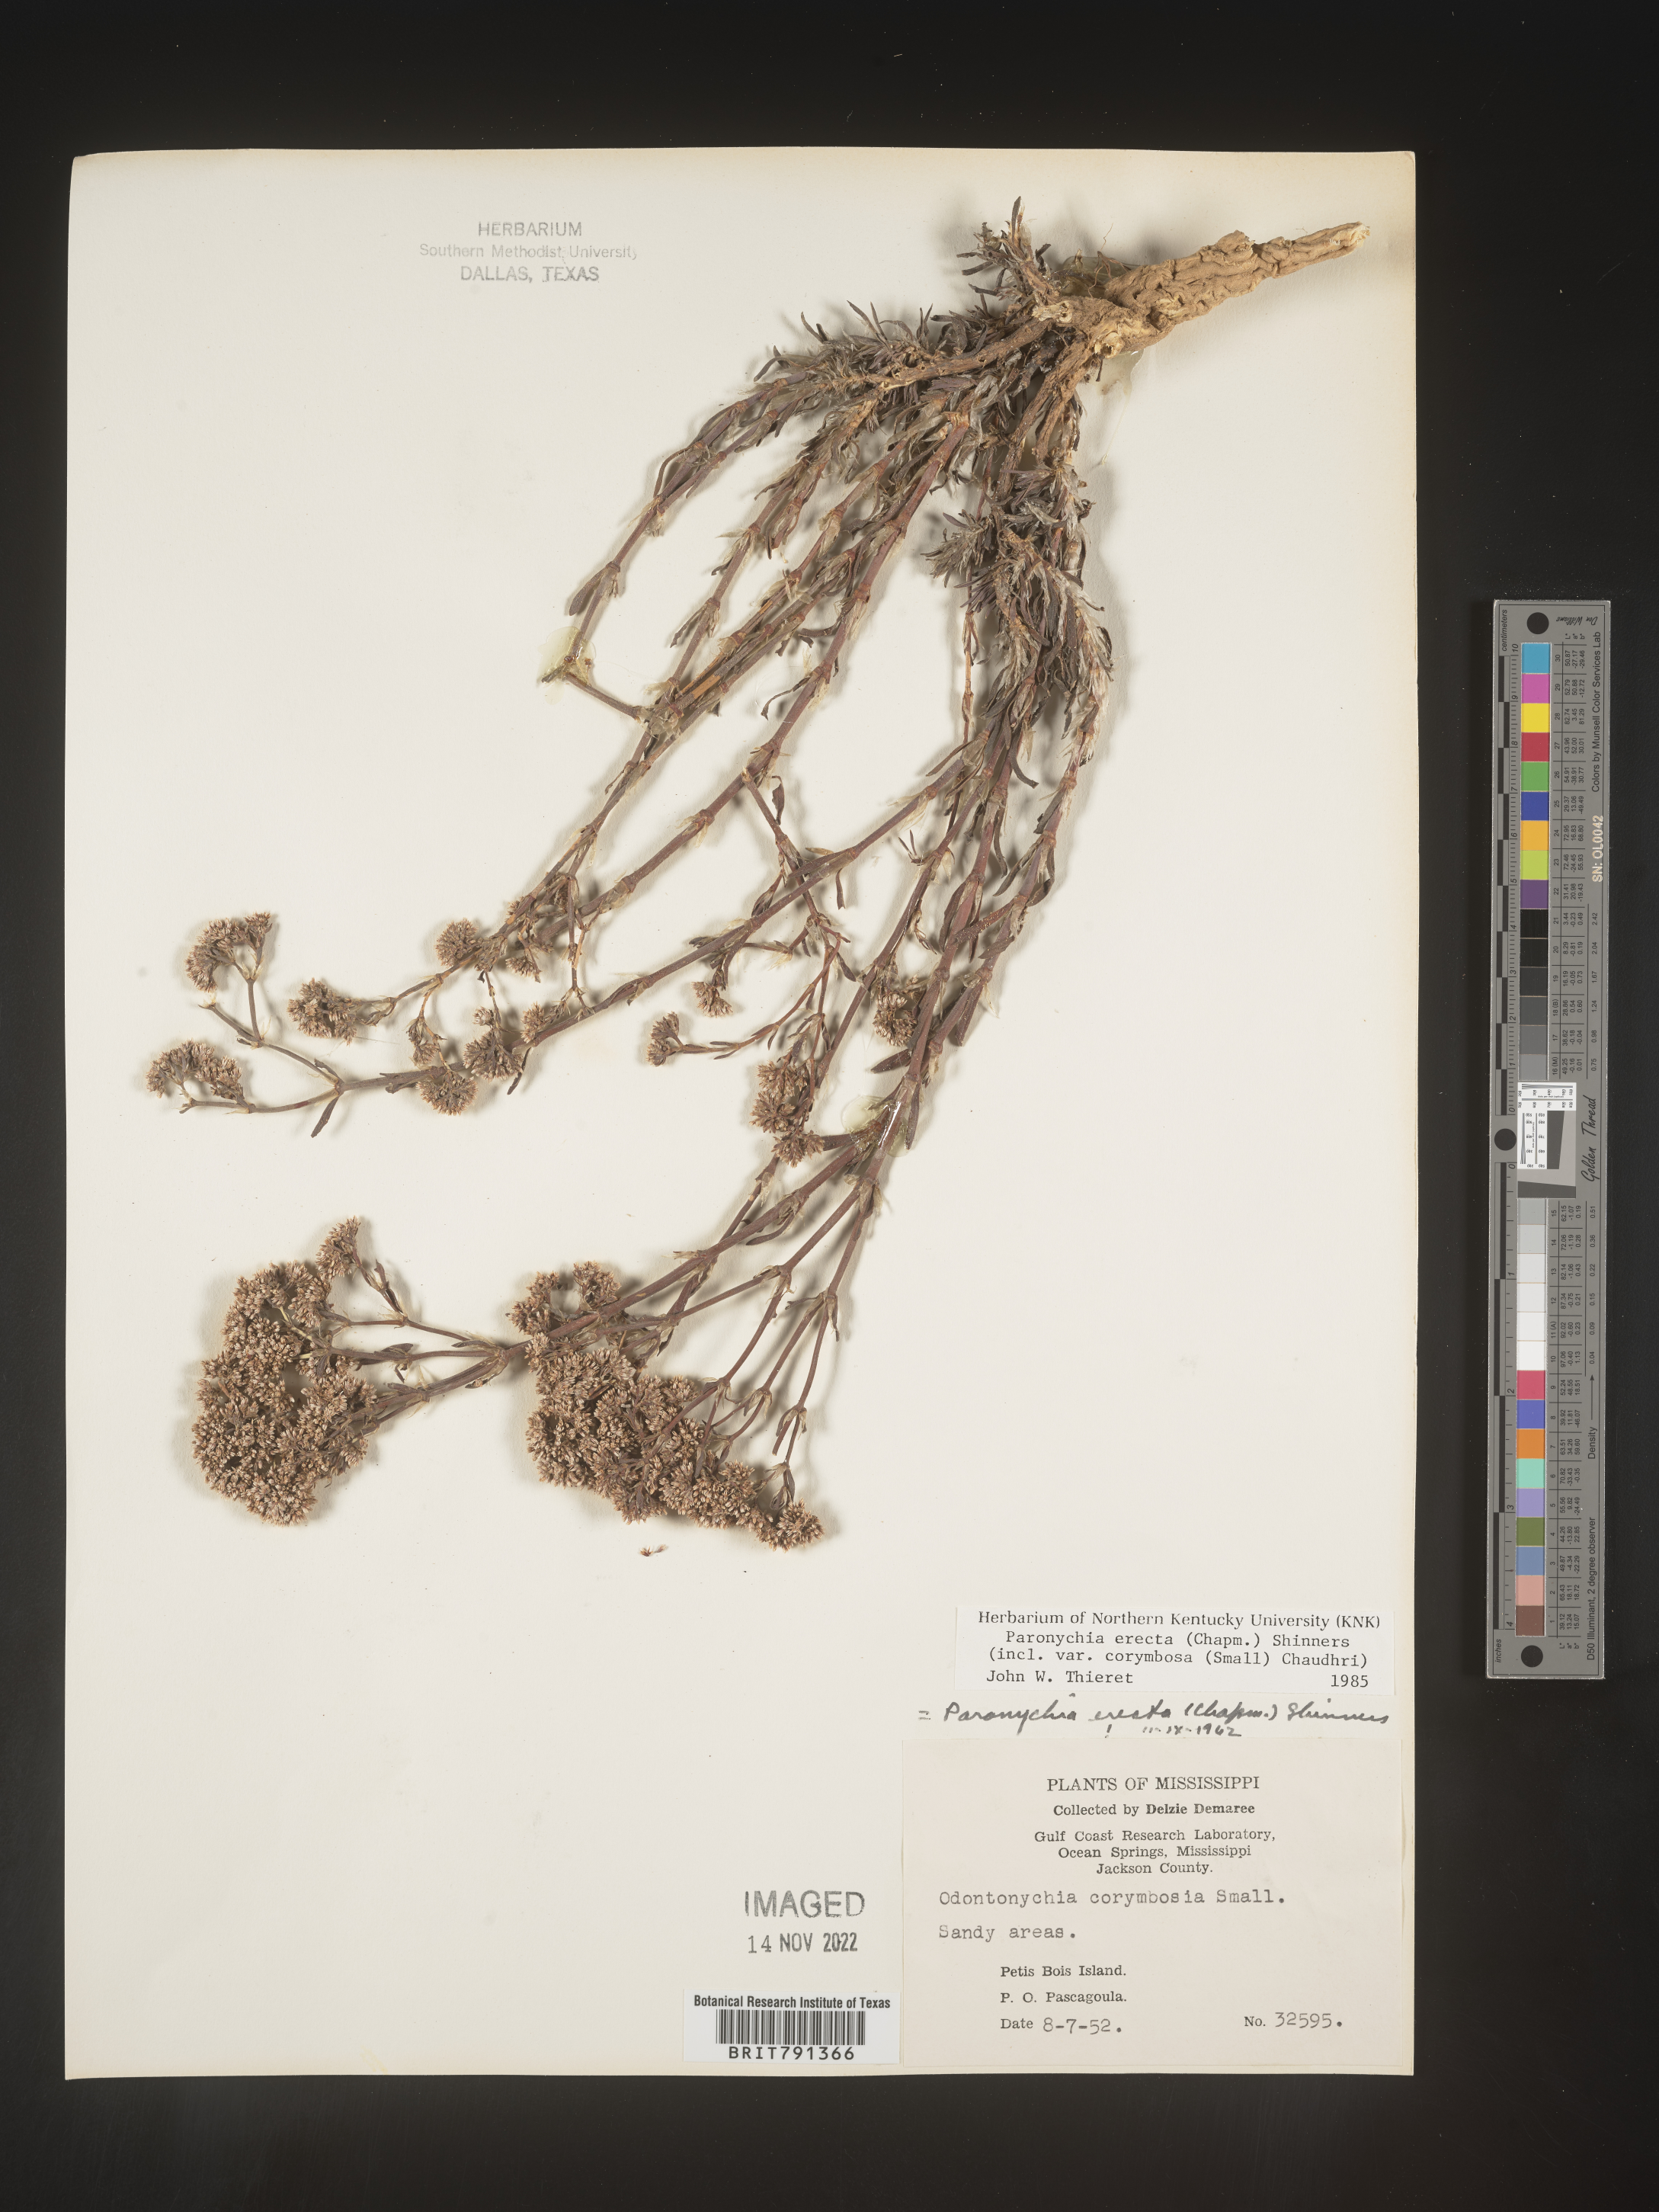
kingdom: Plantae
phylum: Tracheophyta
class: Magnoliopsida
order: Caryophyllales
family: Caryophyllaceae
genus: Paronychia
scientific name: Paronychia erecta
